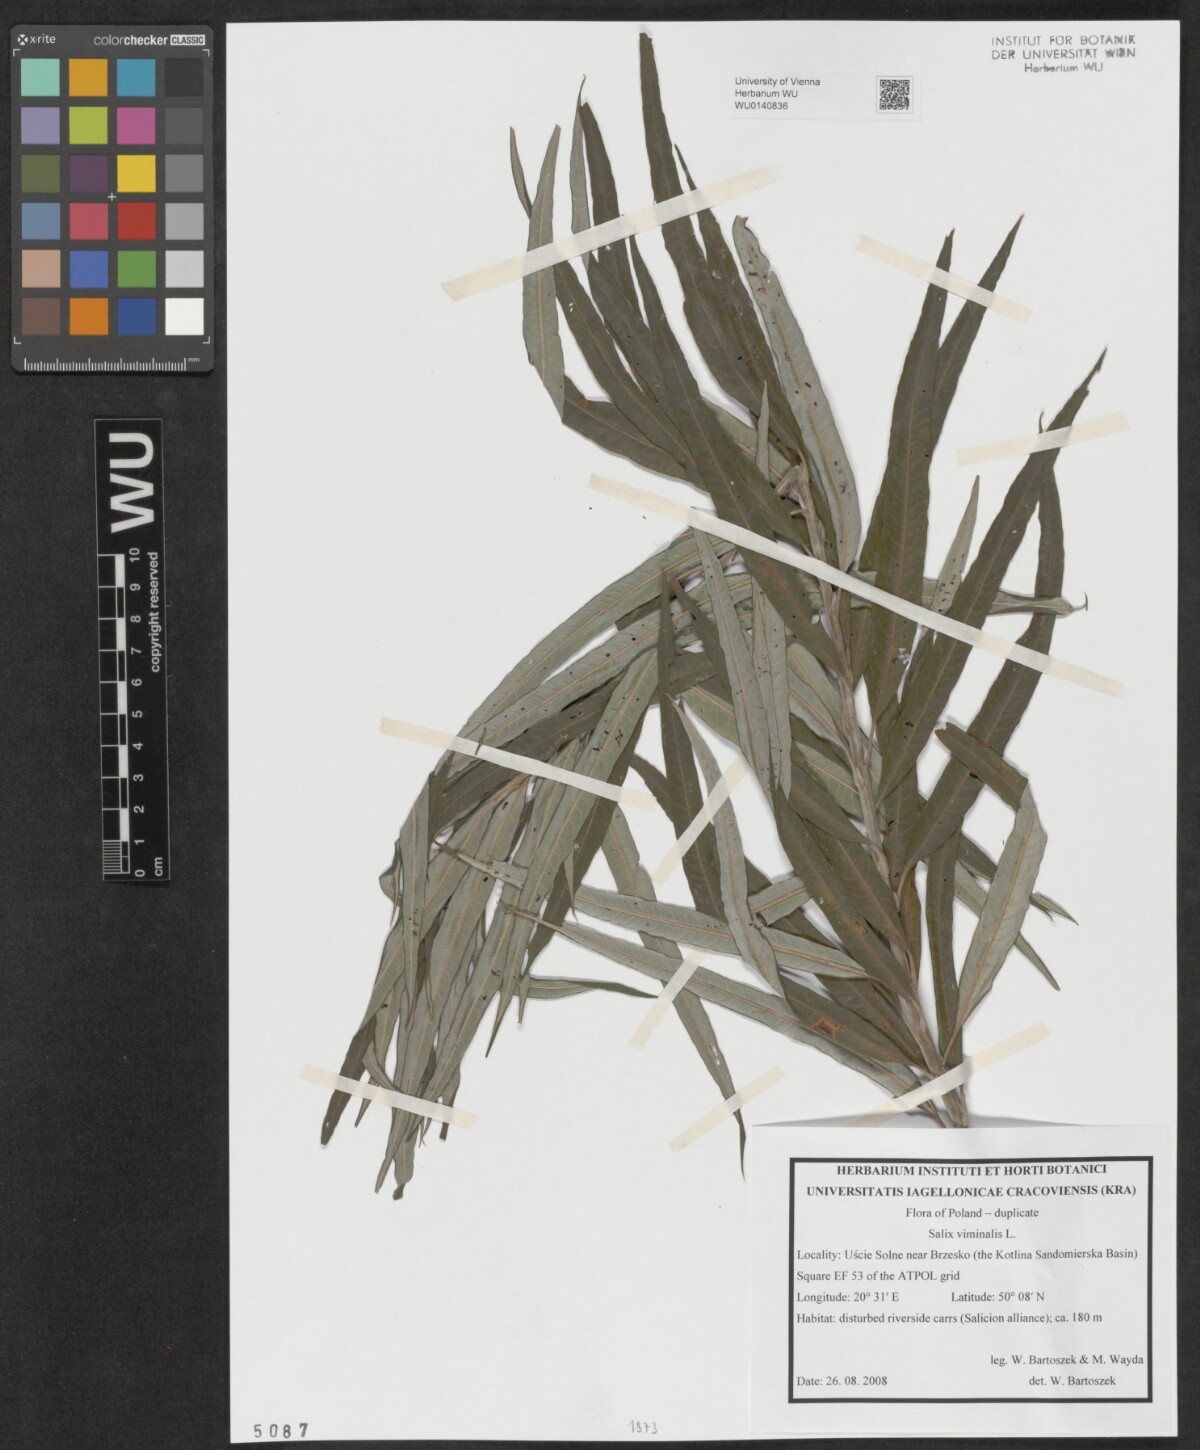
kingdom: Plantae
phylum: Tracheophyta
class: Magnoliopsida
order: Malpighiales
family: Salicaceae
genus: Salix
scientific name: Salix viminalis
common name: Osier
